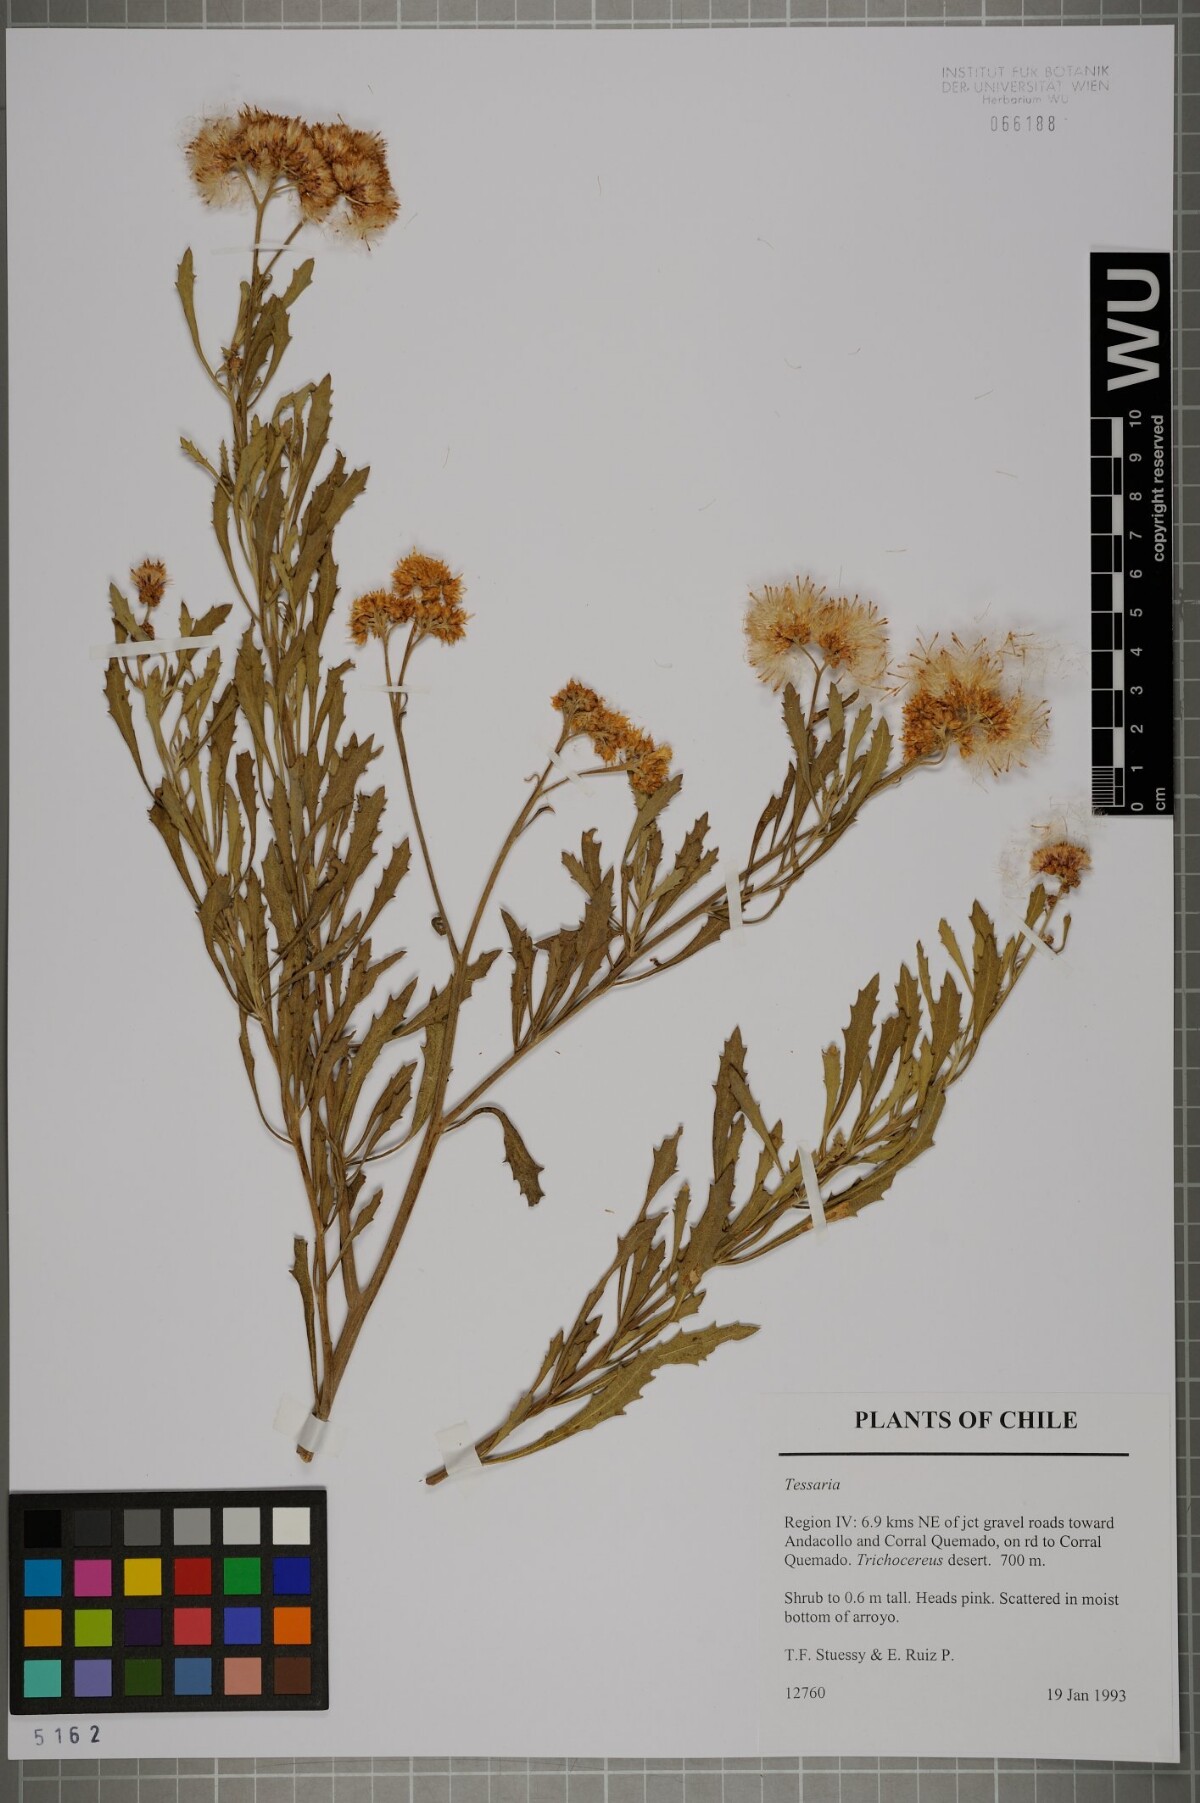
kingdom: Plantae
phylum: Tracheophyta
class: Magnoliopsida
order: Asterales
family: Asteraceae
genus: Tessaria
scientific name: Tessaria
